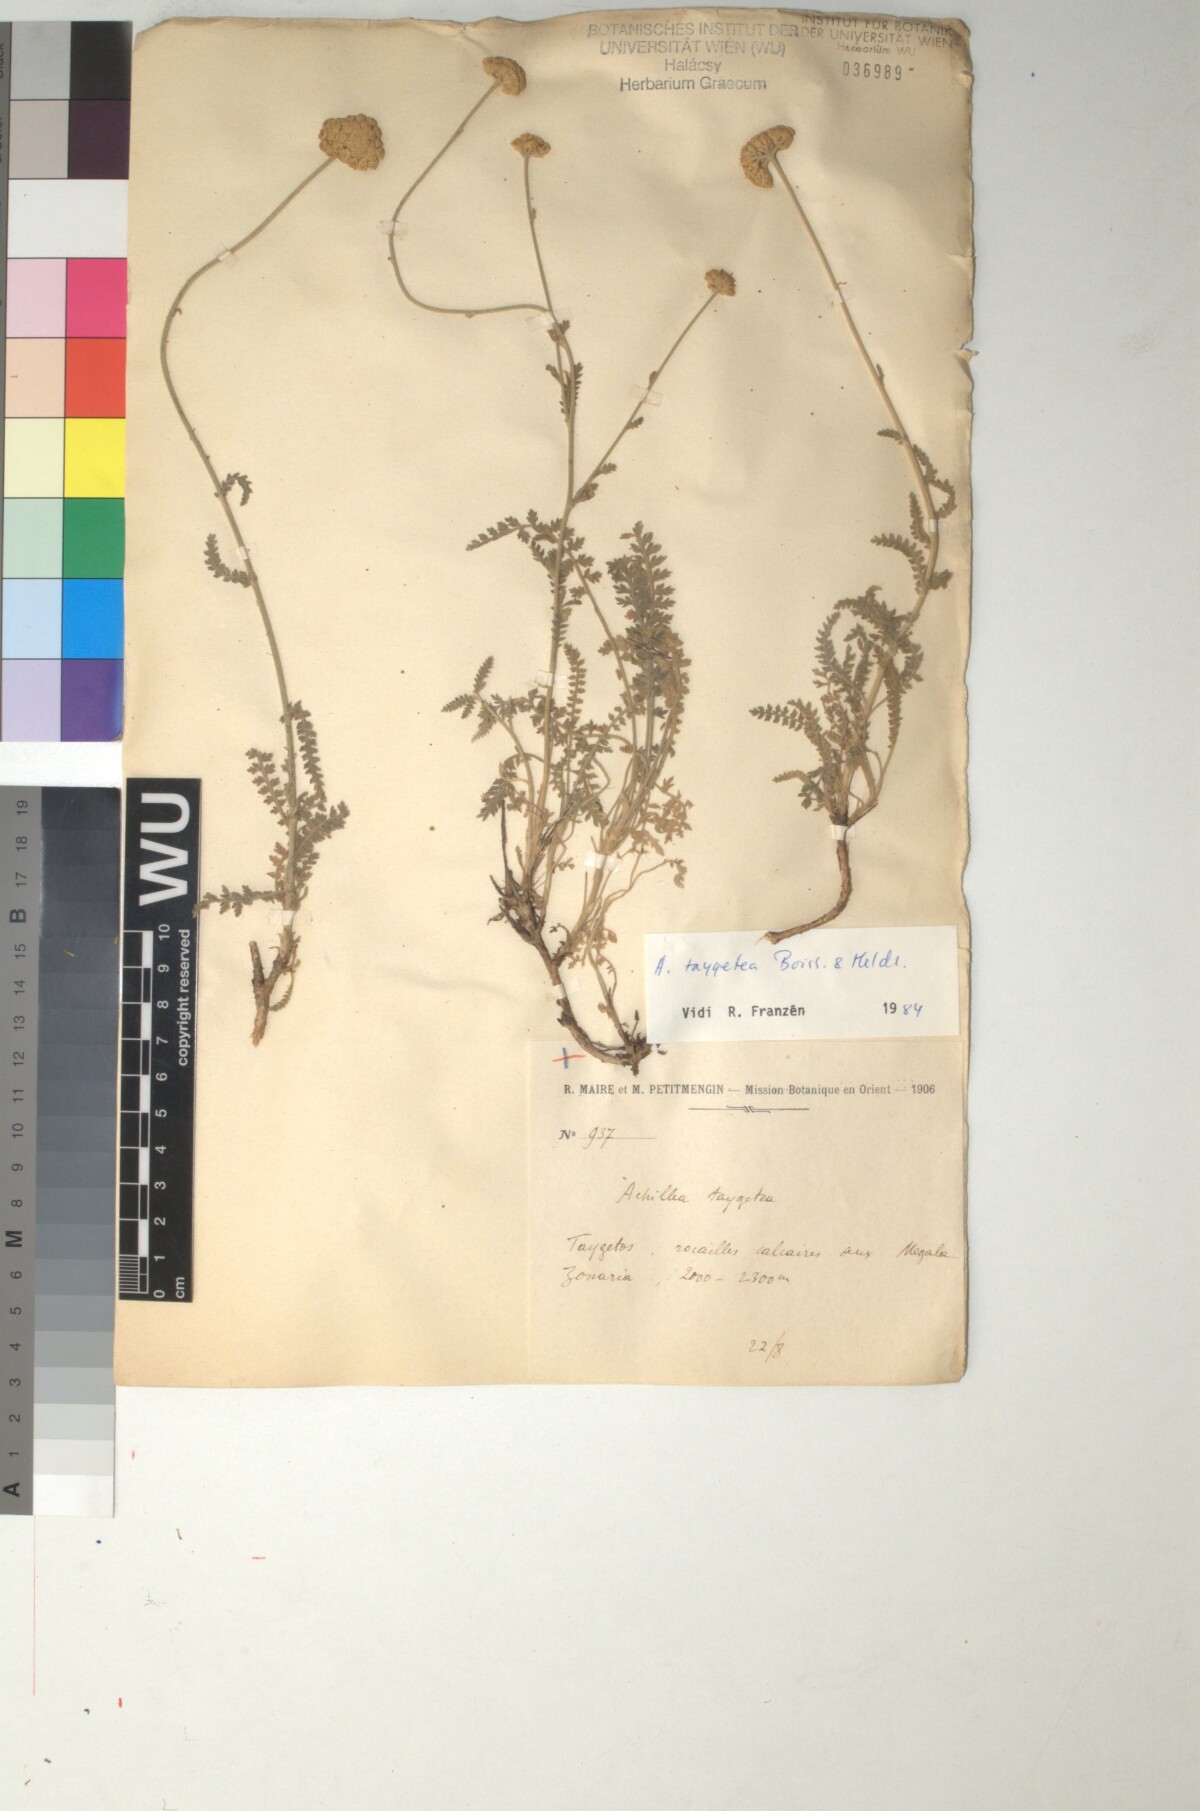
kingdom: Plantae
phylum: Tracheophyta
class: Magnoliopsida
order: Asterales
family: Asteraceae
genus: Achillea
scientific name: Achillea taygetea
